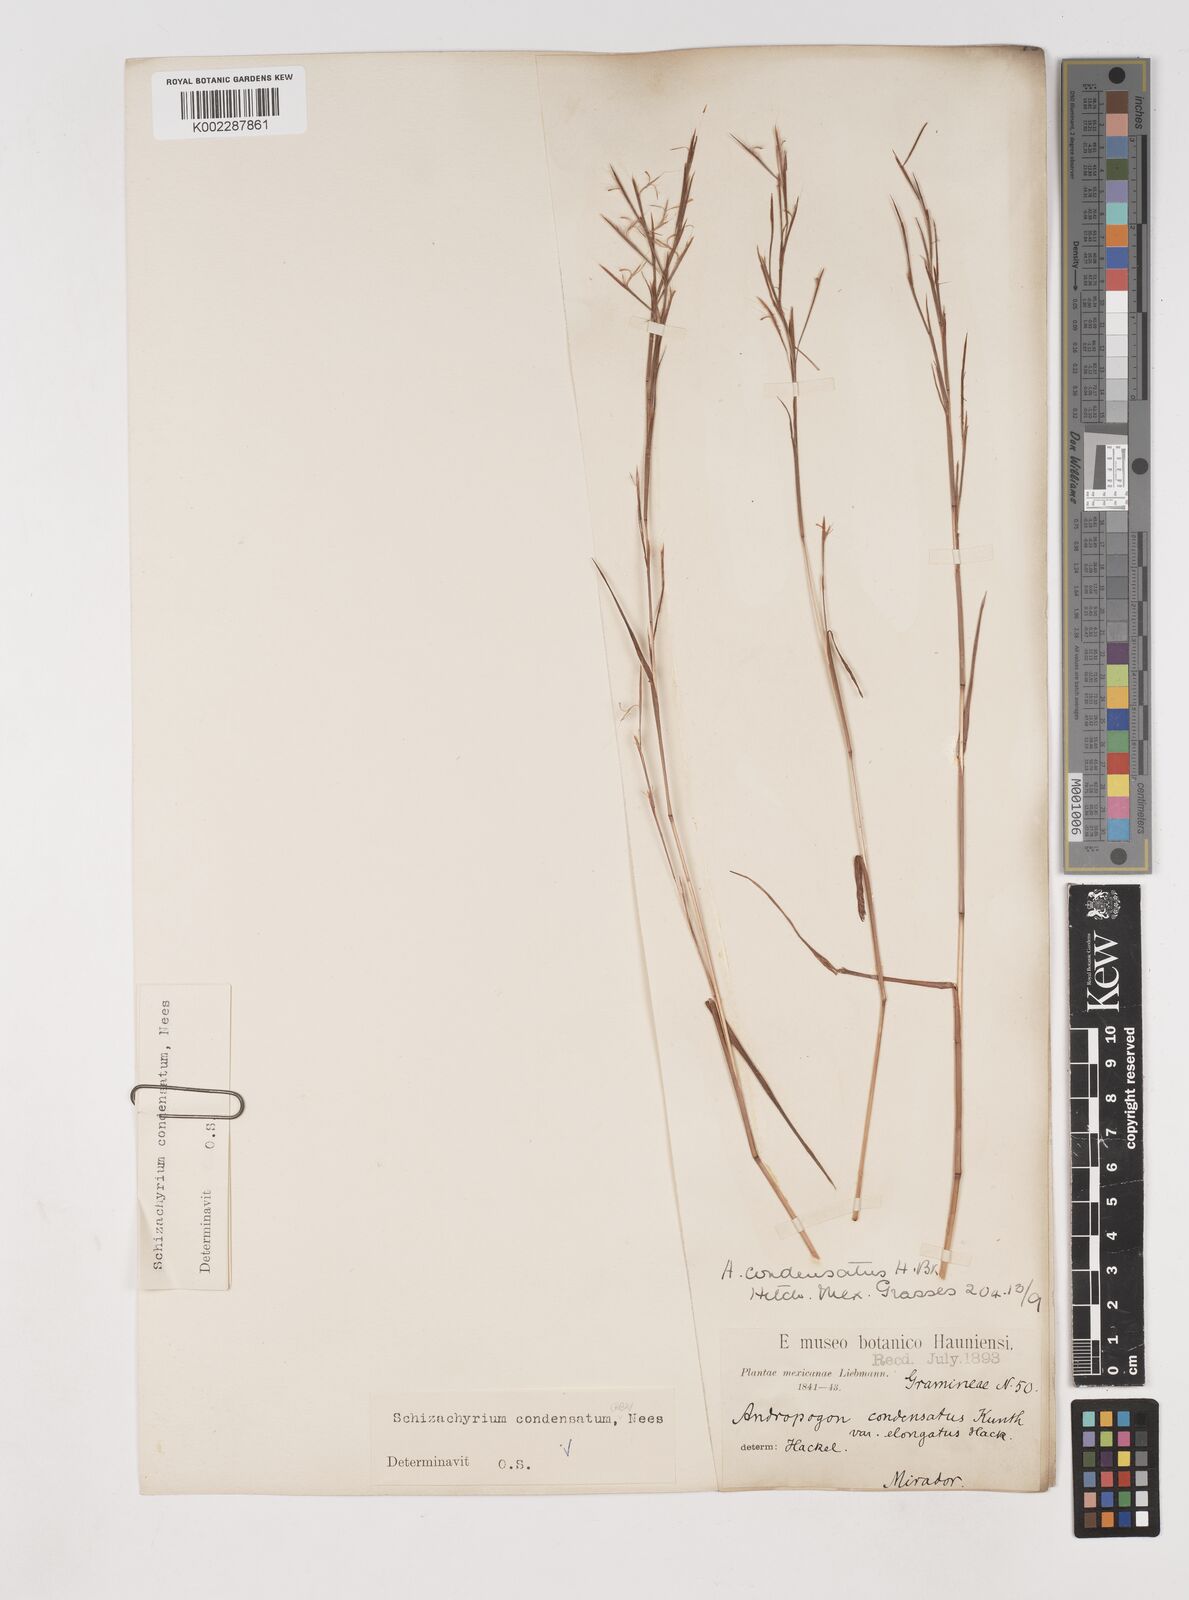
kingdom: Plantae
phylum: Tracheophyta
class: Liliopsida
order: Poales
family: Poaceae
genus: Schizachyrium
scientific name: Schizachyrium condensatum
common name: Bush beardgrass
